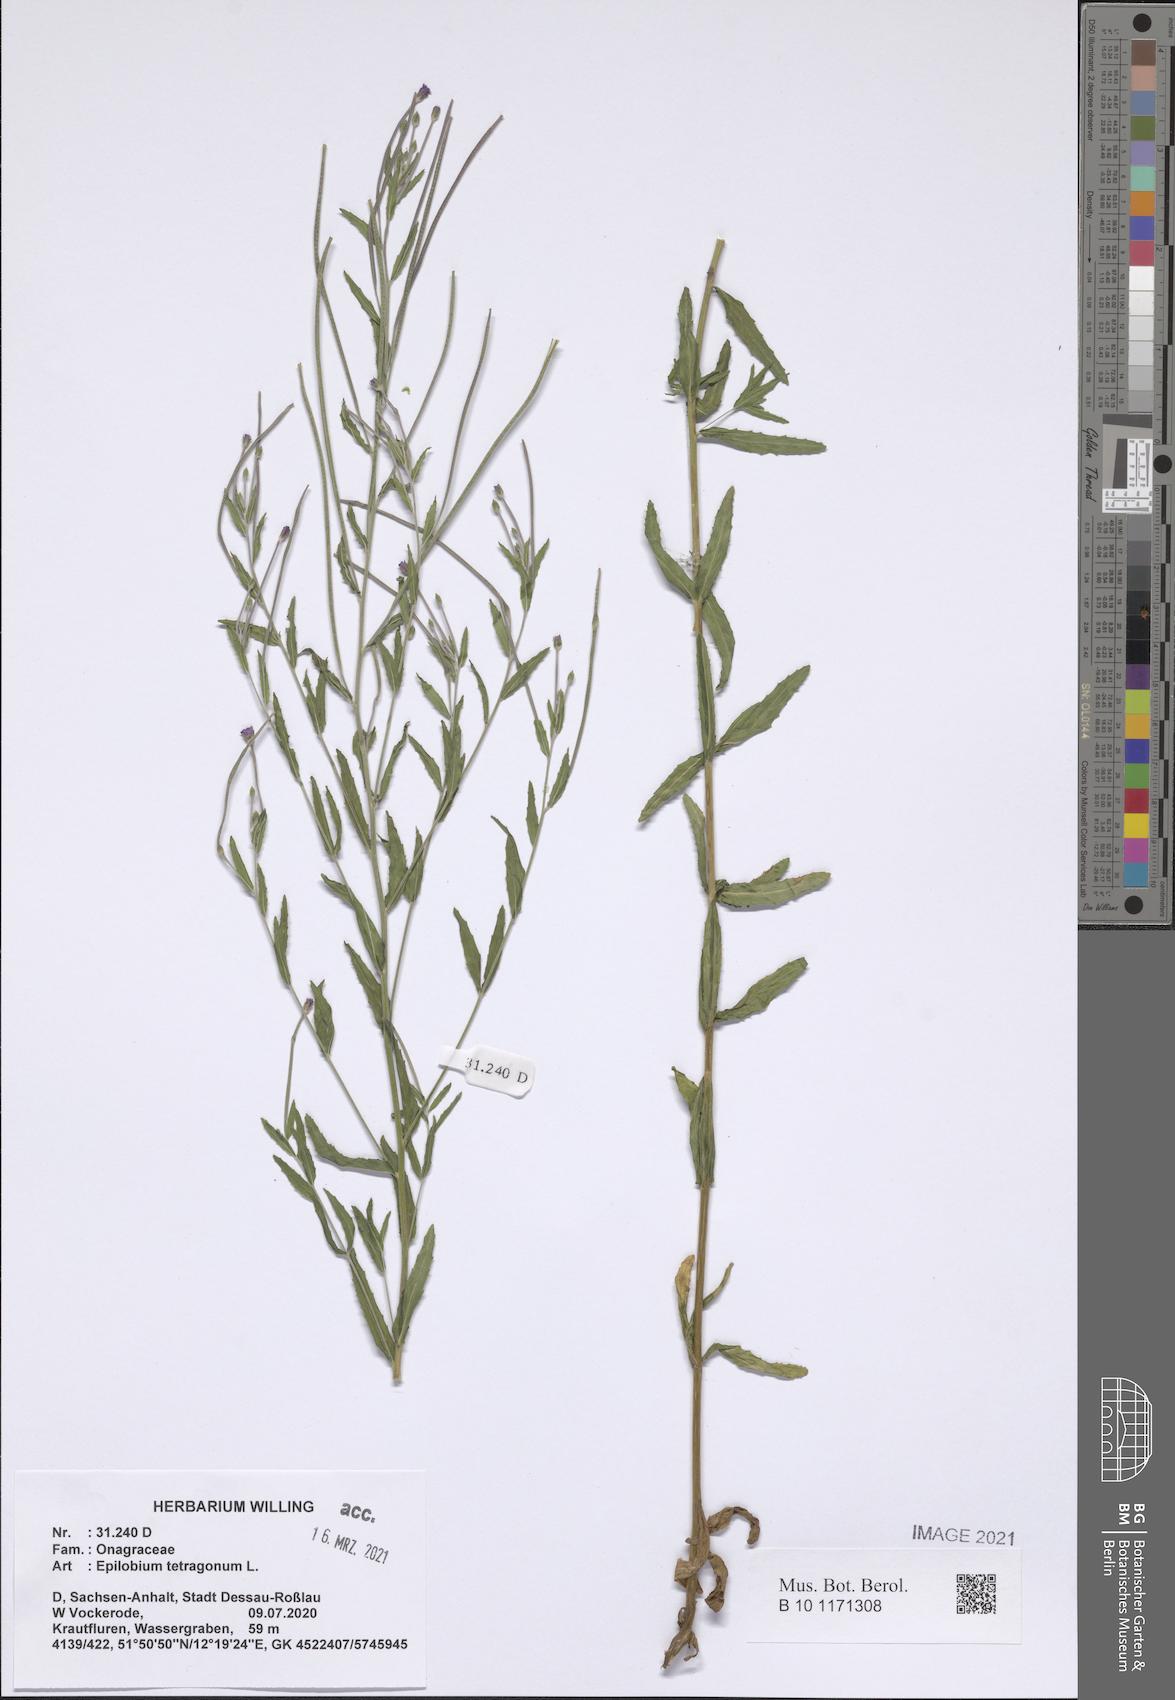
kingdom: Plantae
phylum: Tracheophyta
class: Magnoliopsida
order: Myrtales
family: Onagraceae
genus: Epilobium
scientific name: Epilobium tetragonum
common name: Square-stemmed willowherb
